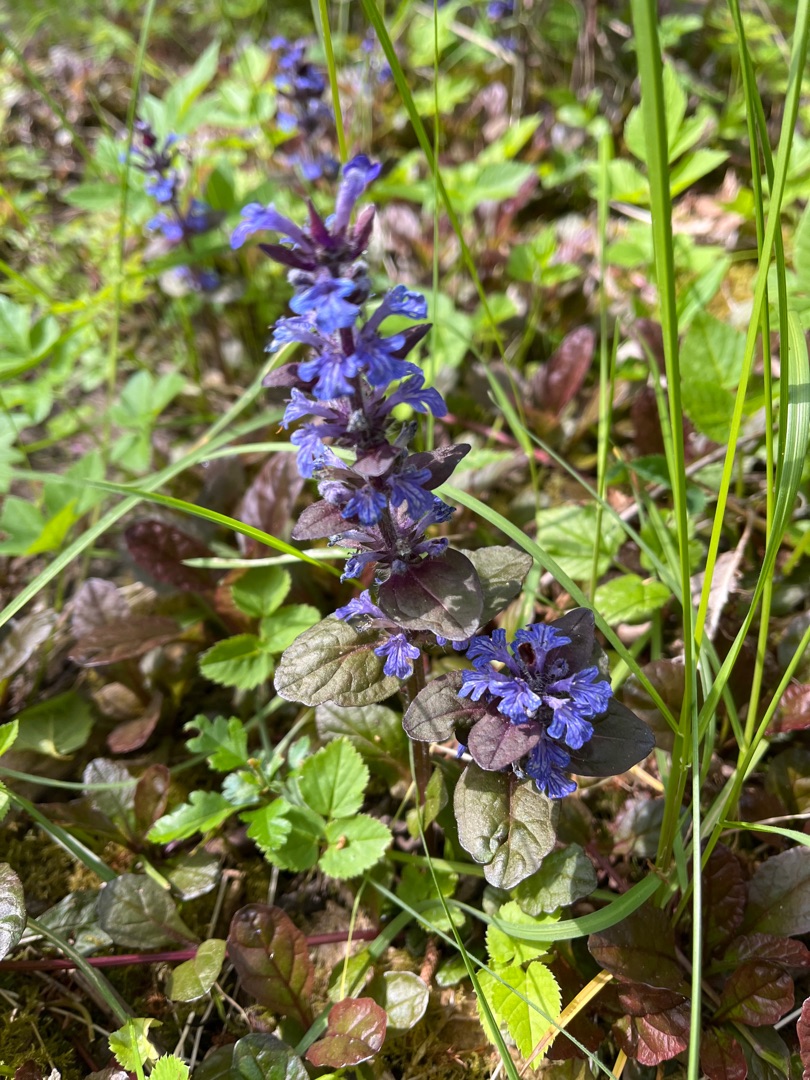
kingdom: Plantae
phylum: Tracheophyta
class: Magnoliopsida
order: Lamiales
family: Lamiaceae
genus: Ajuga
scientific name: Ajuga reptans
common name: Krybende læbeløs
